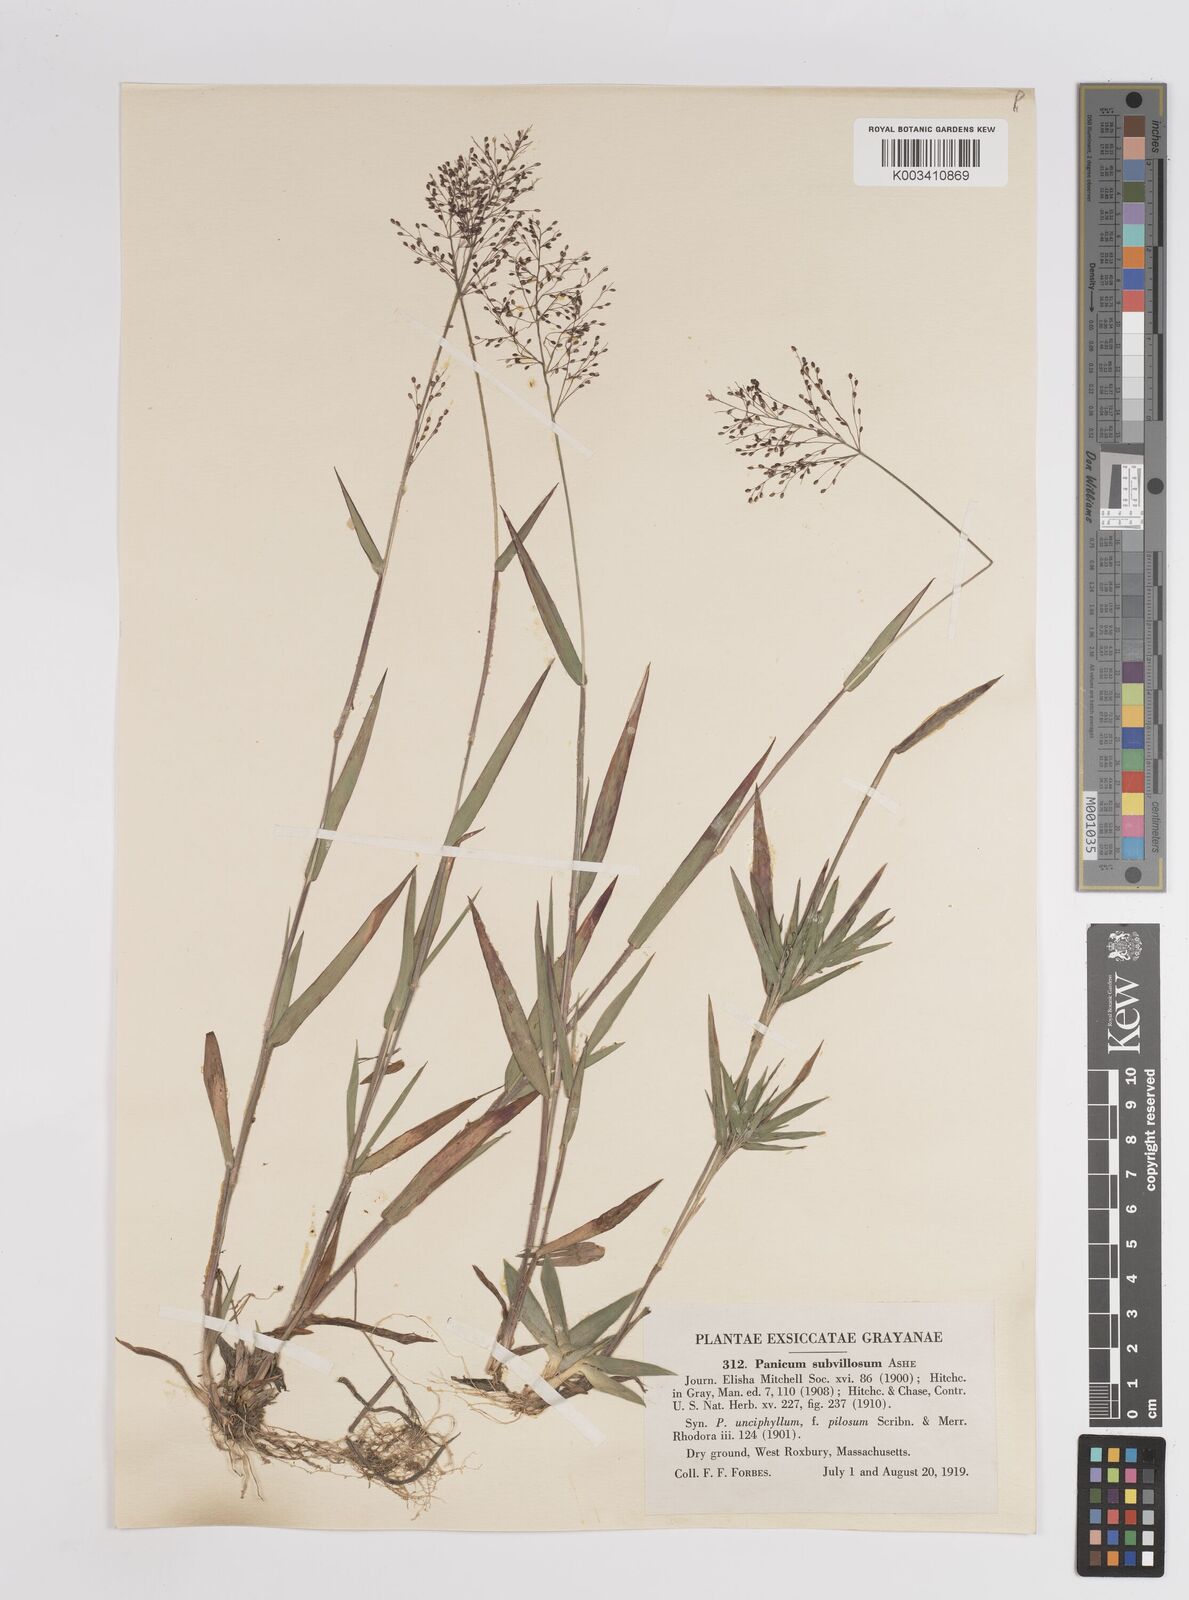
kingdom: Plantae
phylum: Tracheophyta
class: Liliopsida
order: Poales
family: Poaceae
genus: Dichanthelium
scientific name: Dichanthelium subvillosum
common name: Soft-haired panicgrass
